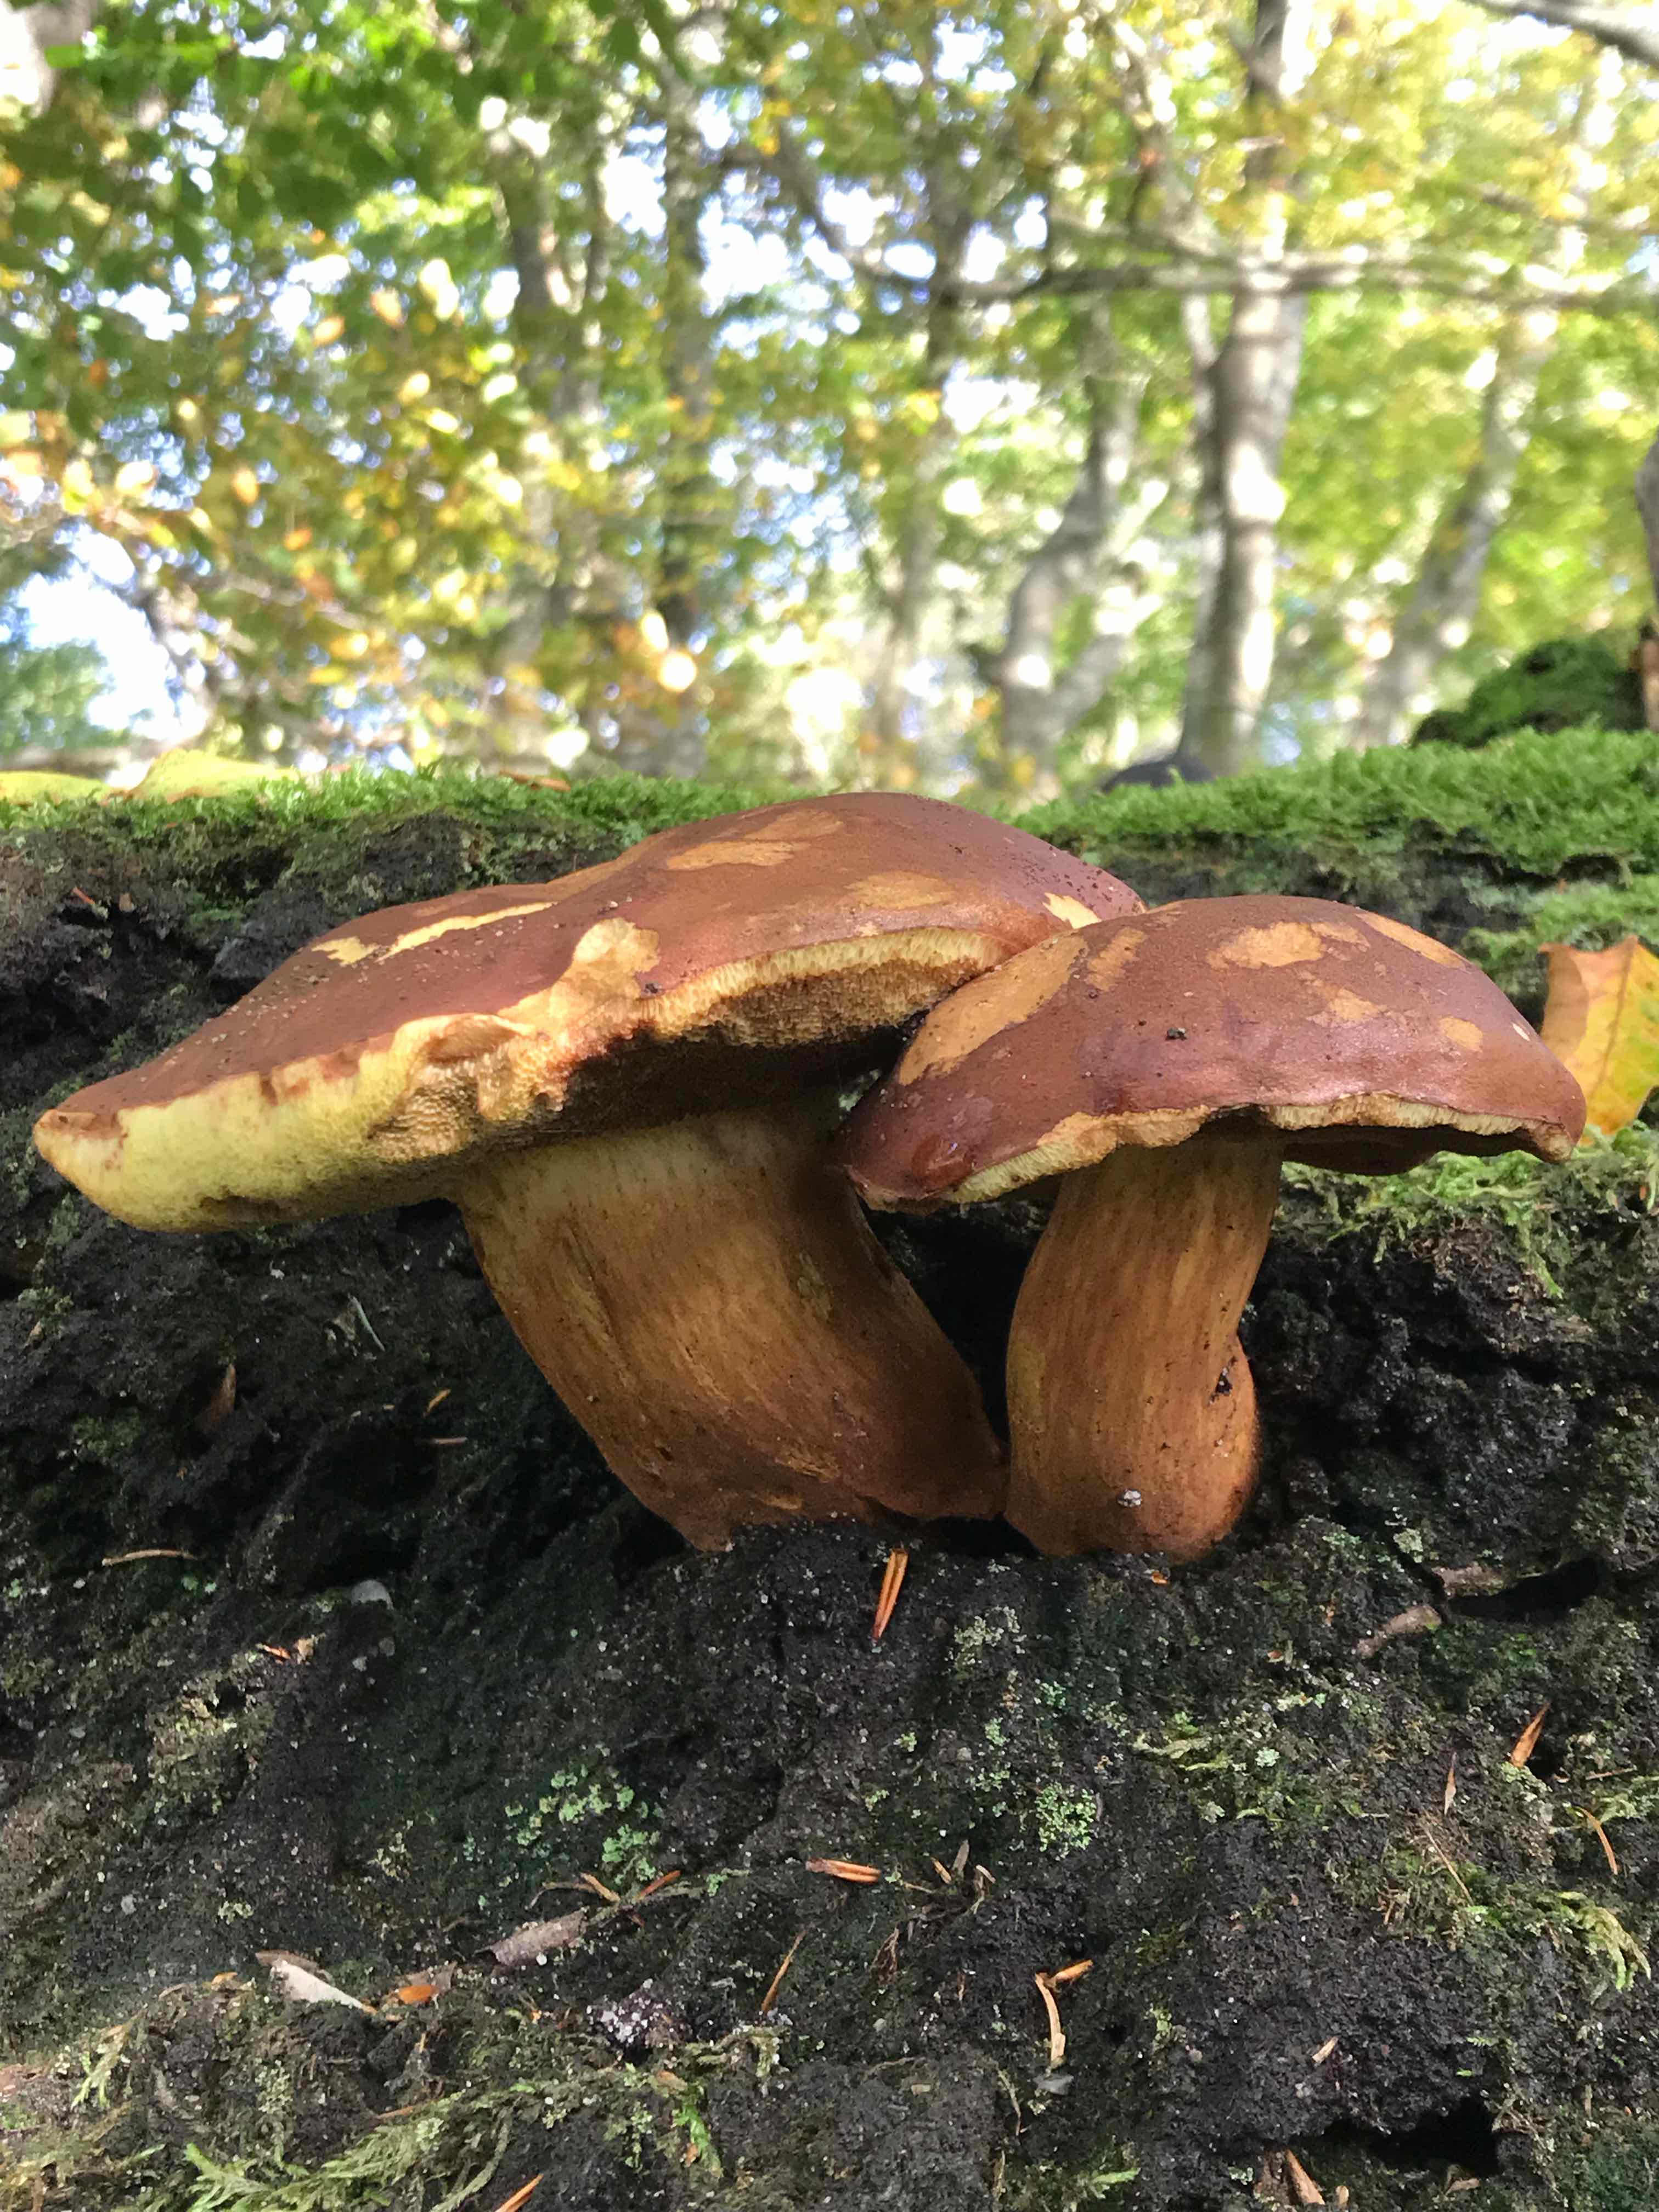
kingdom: Fungi
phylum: Basidiomycota
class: Agaricomycetes
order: Boletales
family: Boletaceae
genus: Imleria
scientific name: Imleria badia
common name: brunstokket rørhat
